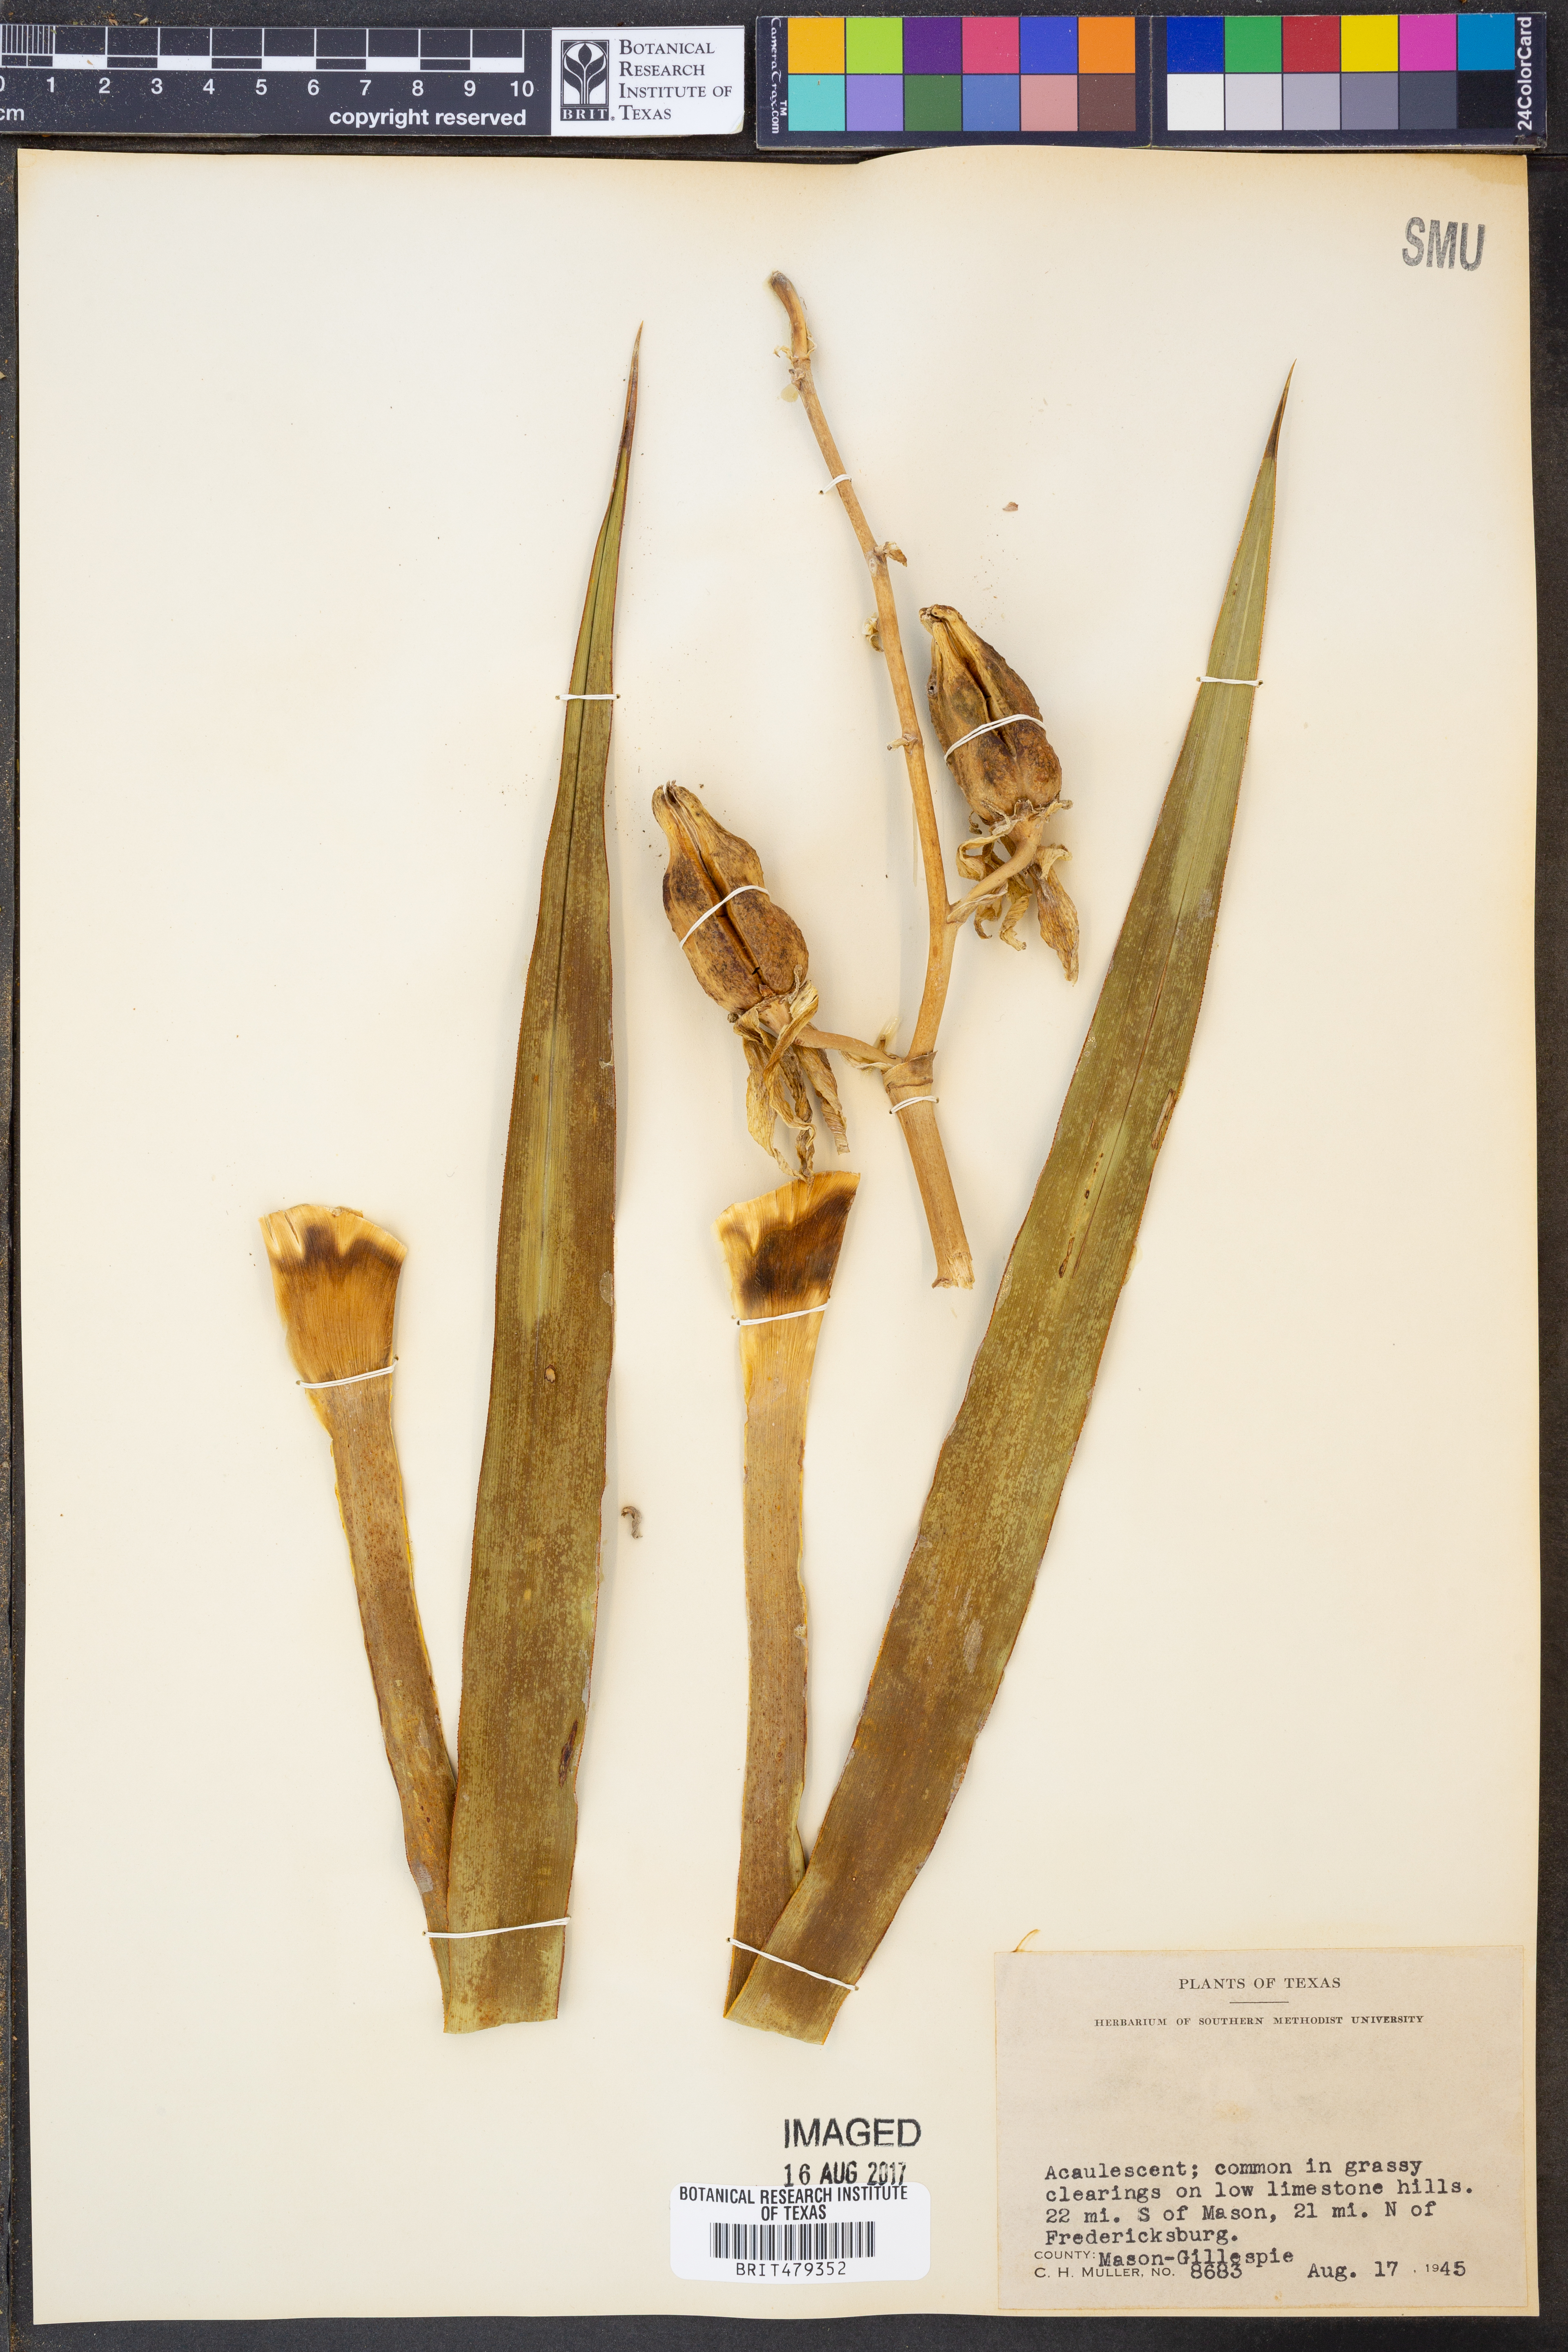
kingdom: Plantae
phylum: Tracheophyta
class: Liliopsida
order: Asparagales
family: Asparagaceae
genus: Yucca
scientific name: Yucca glauca
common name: Great plains yucca
